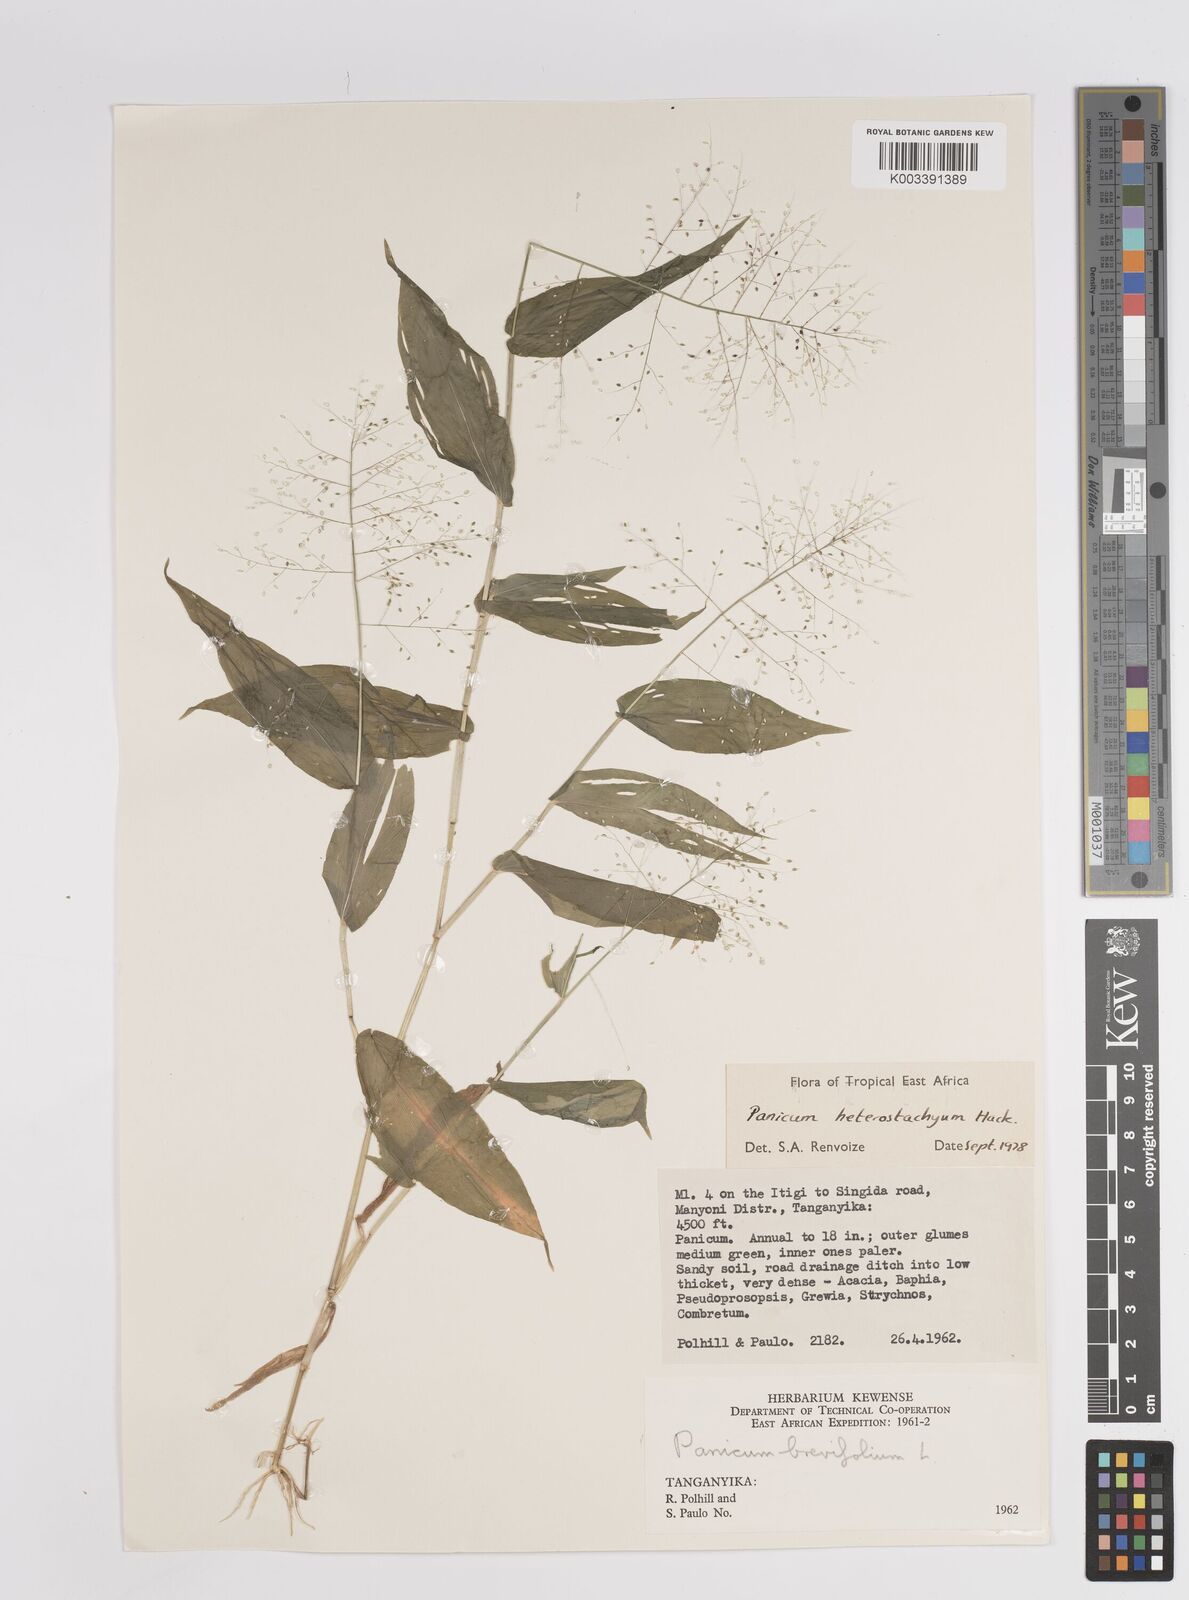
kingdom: Plantae
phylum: Tracheophyta
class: Liliopsida
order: Poales
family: Poaceae
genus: Panicum
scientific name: Panicum hirtum
